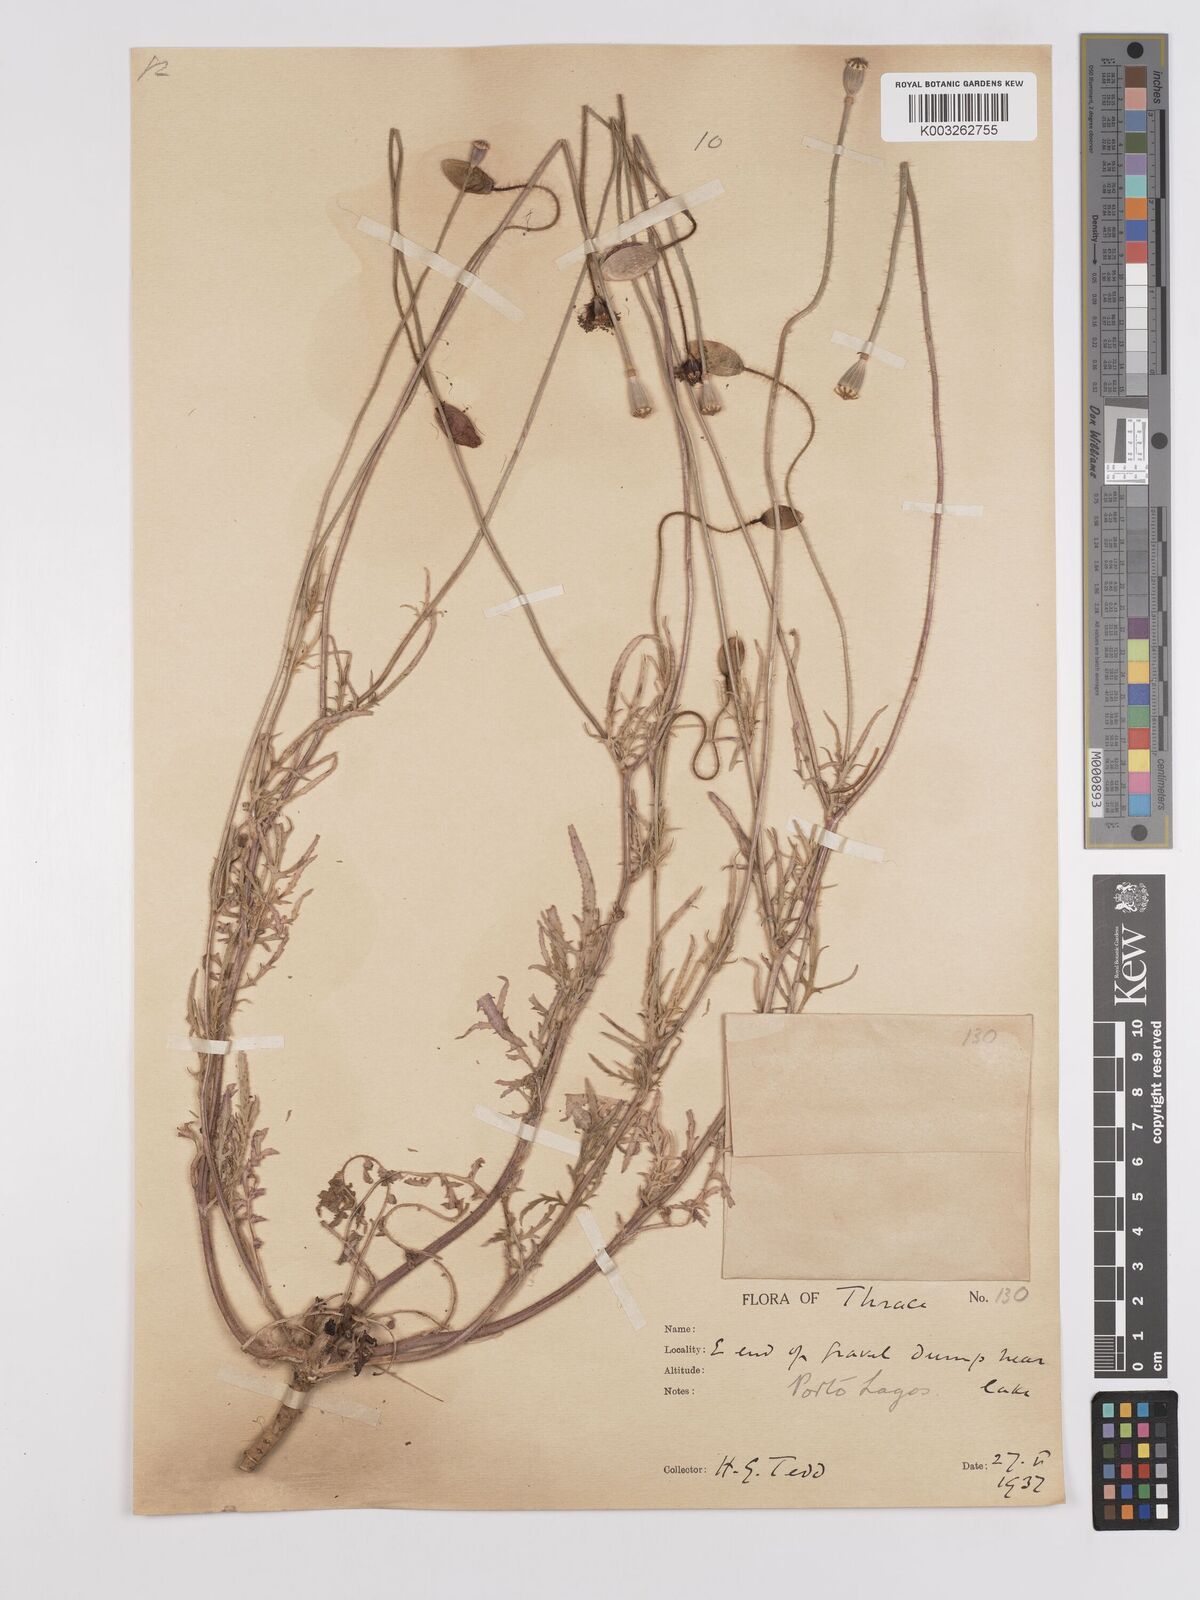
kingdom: Plantae
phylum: Tracheophyta
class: Magnoliopsida
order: Ranunculales
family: Papaveraceae
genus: Papaver
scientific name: Papaver
